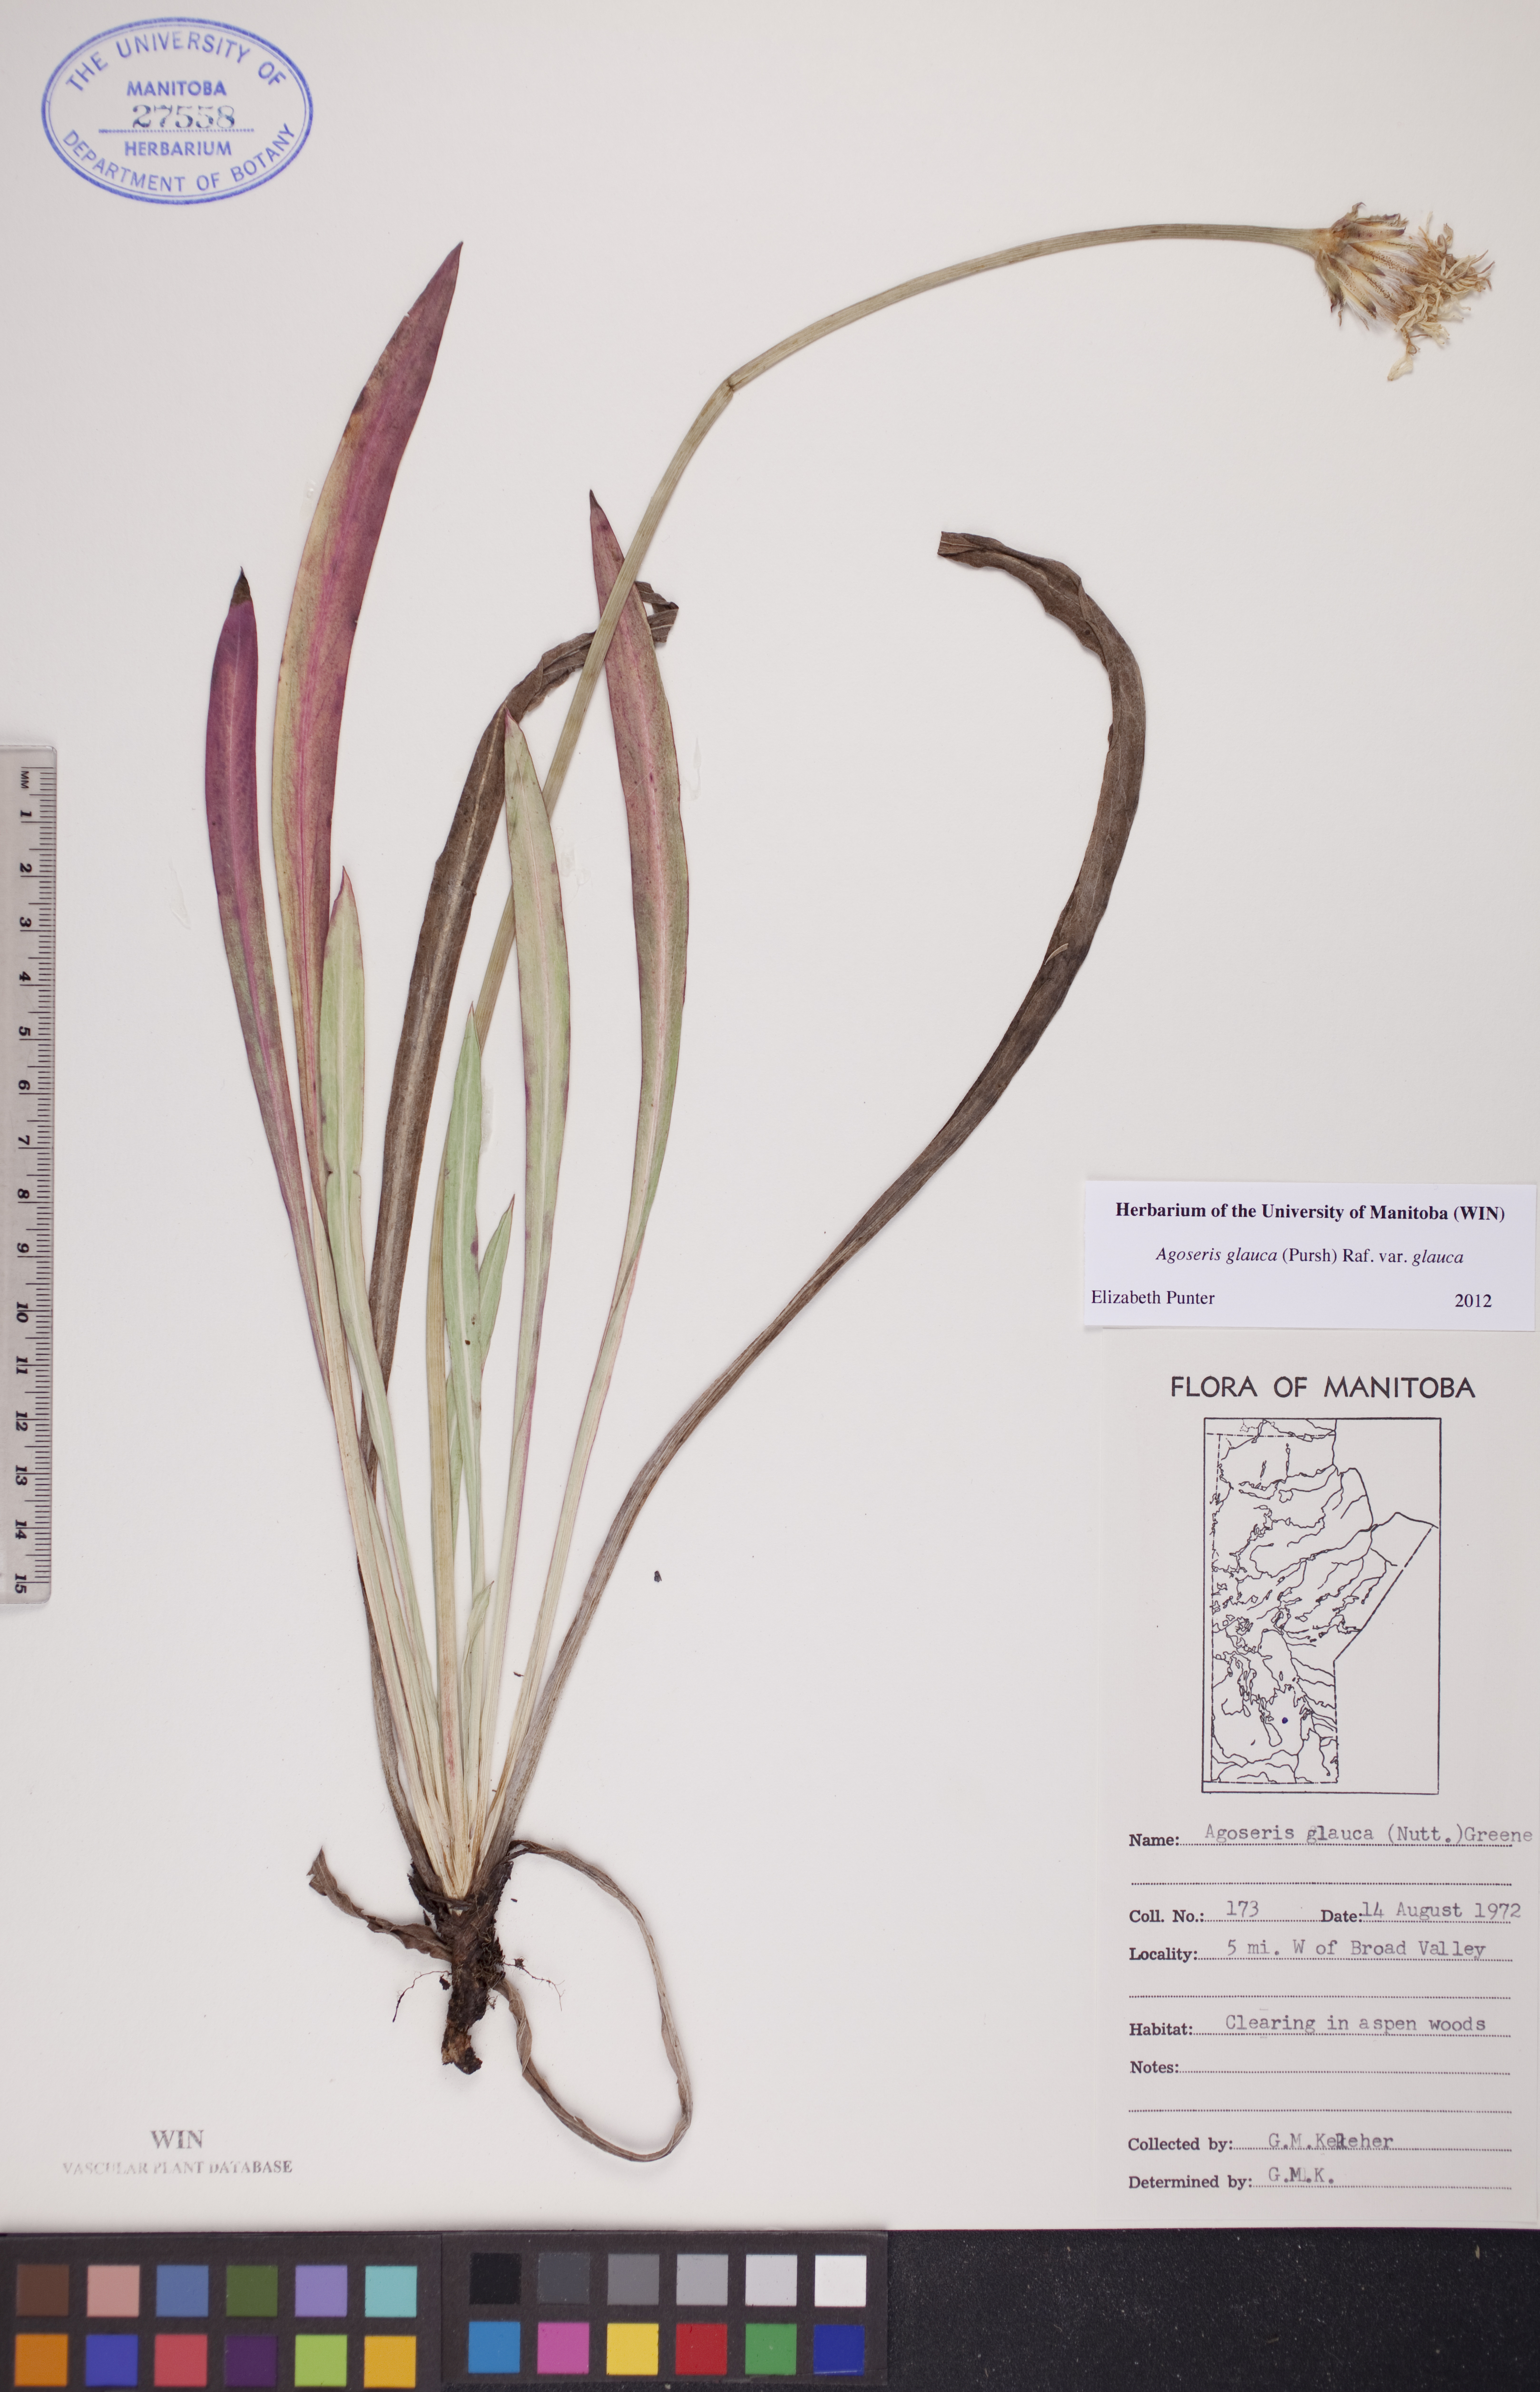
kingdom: Plantae
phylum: Tracheophyta
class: Magnoliopsida
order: Asterales
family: Asteraceae
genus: Agoseris
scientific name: Agoseris glauca
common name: Prairie agoseris
